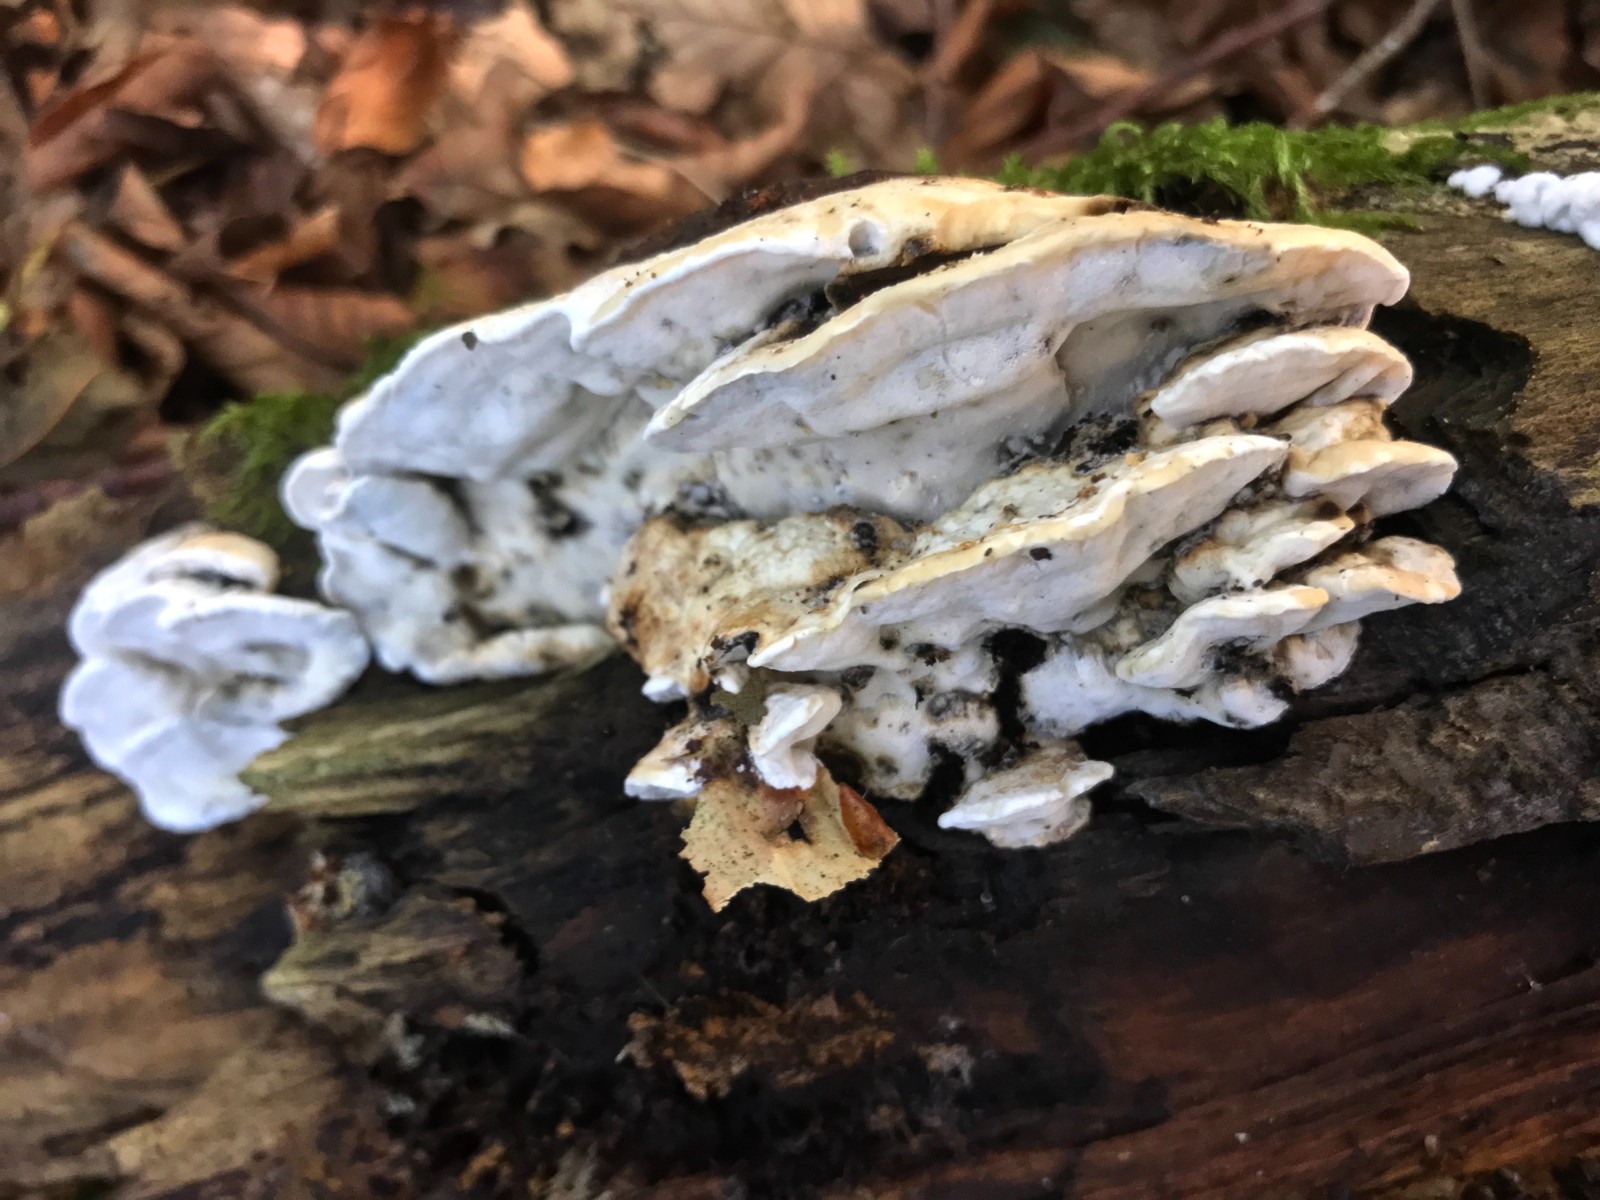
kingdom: Fungi
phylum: Basidiomycota
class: Agaricomycetes
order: Polyporales
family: Incrustoporiaceae
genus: Skeletocutis
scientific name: Skeletocutis nemoralis
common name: stor krystalporesvamp
